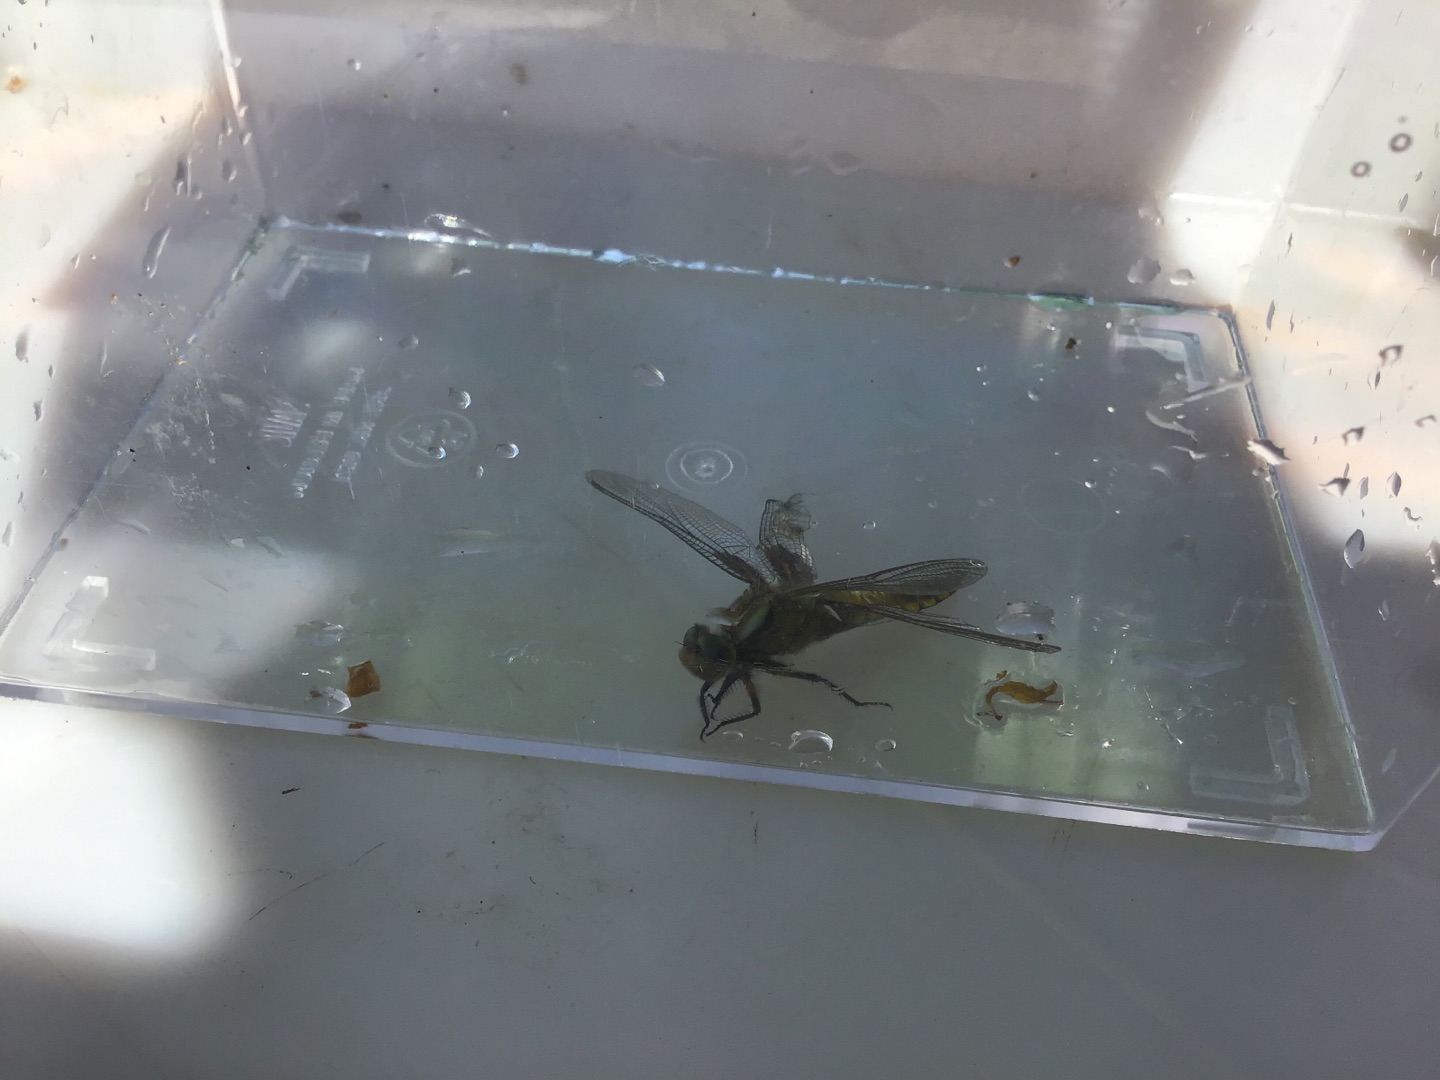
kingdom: Animalia
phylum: Arthropoda
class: Insecta
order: Odonata
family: Libellulidae
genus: Libellula
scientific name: Libellula depressa
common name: Blå libel
